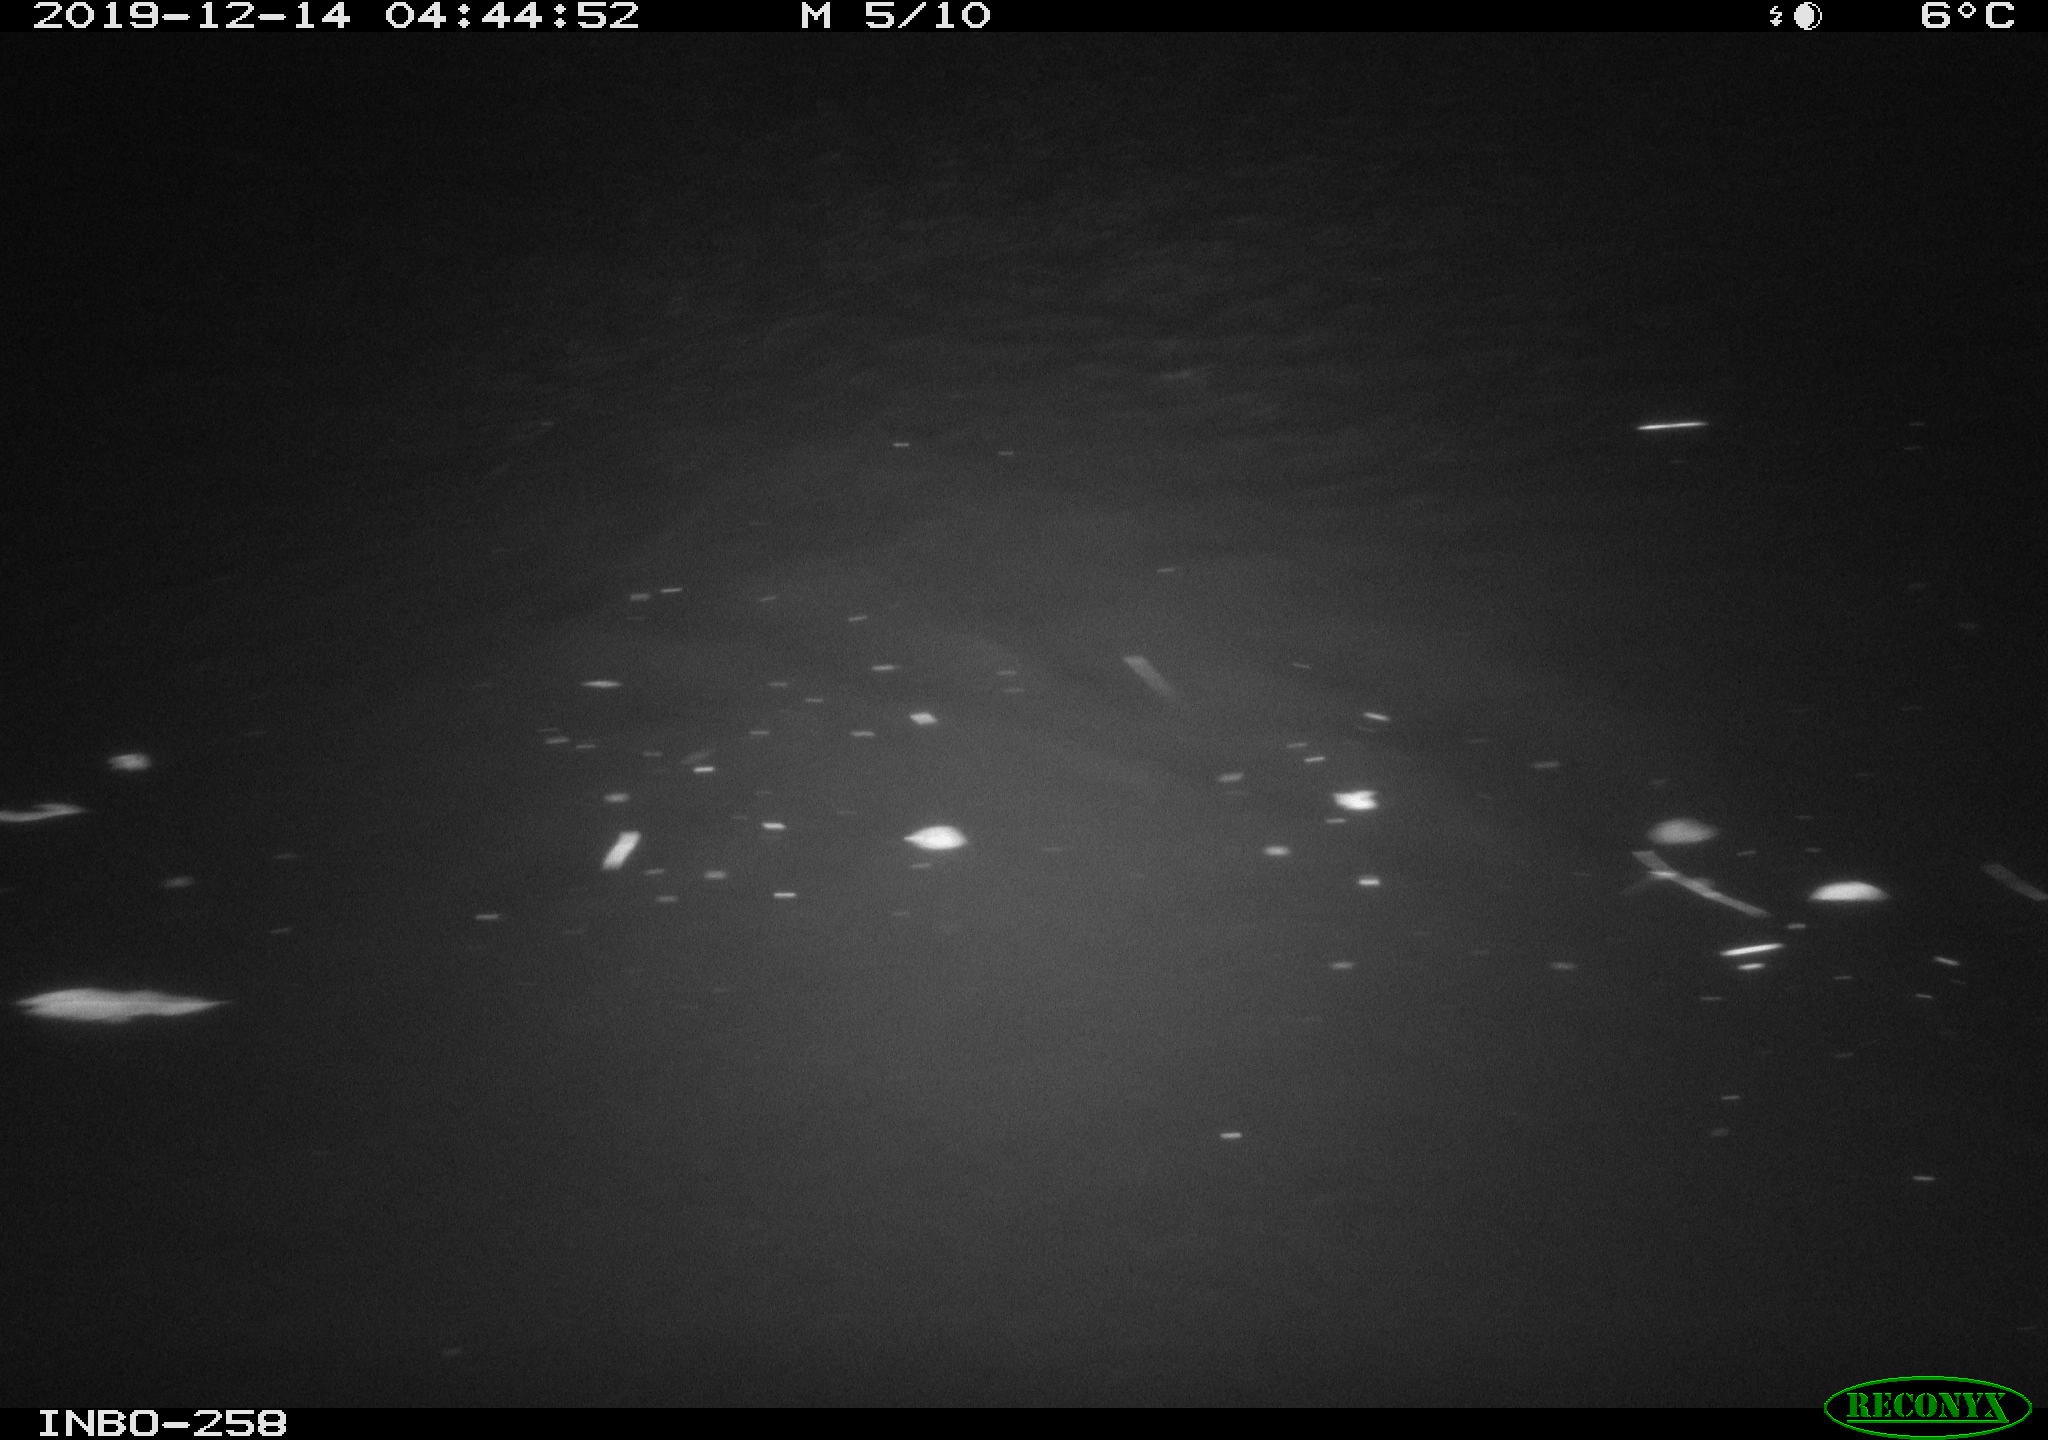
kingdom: Animalia
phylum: Chordata
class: Aves
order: Anseriformes
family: Anatidae
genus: Anas
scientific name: Anas platyrhynchos
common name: Mallard
